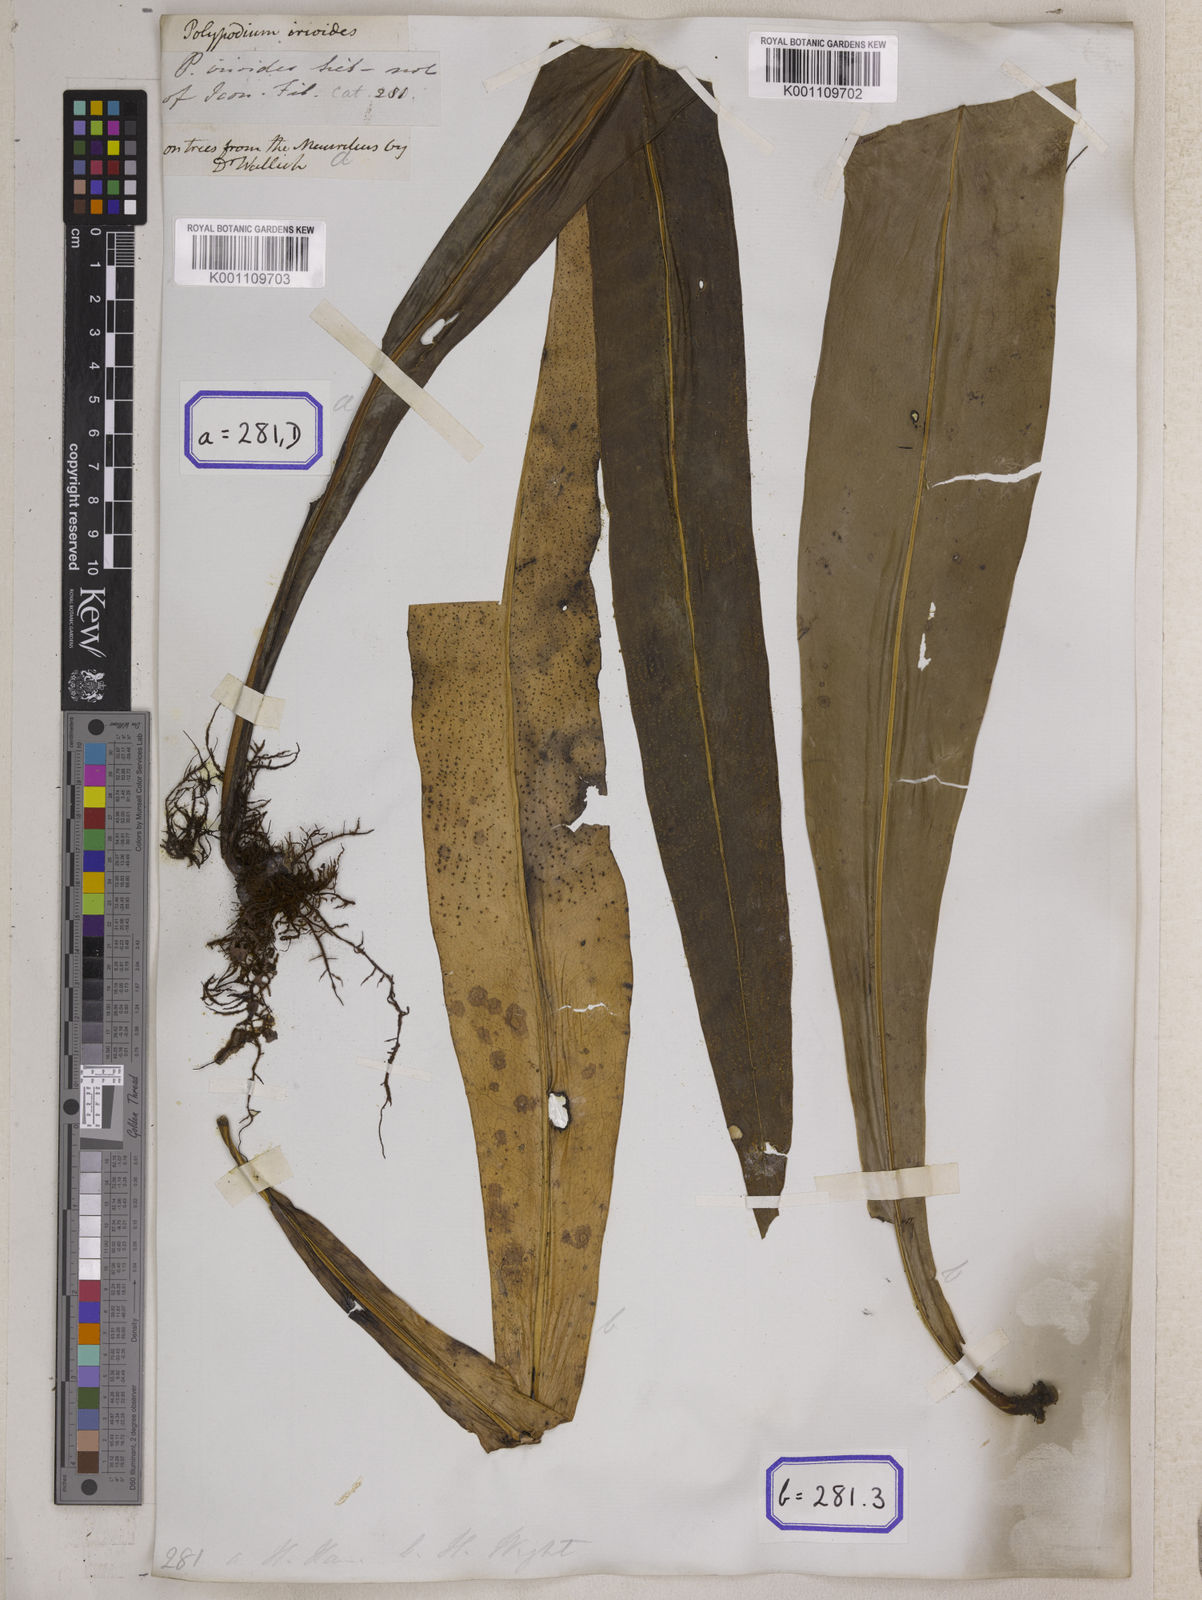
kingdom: Plantae
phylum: Tracheophyta
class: Polypodiopsida
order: Polypodiales
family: Polypodiaceae
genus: Microsorum
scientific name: Microsorum punctatum
